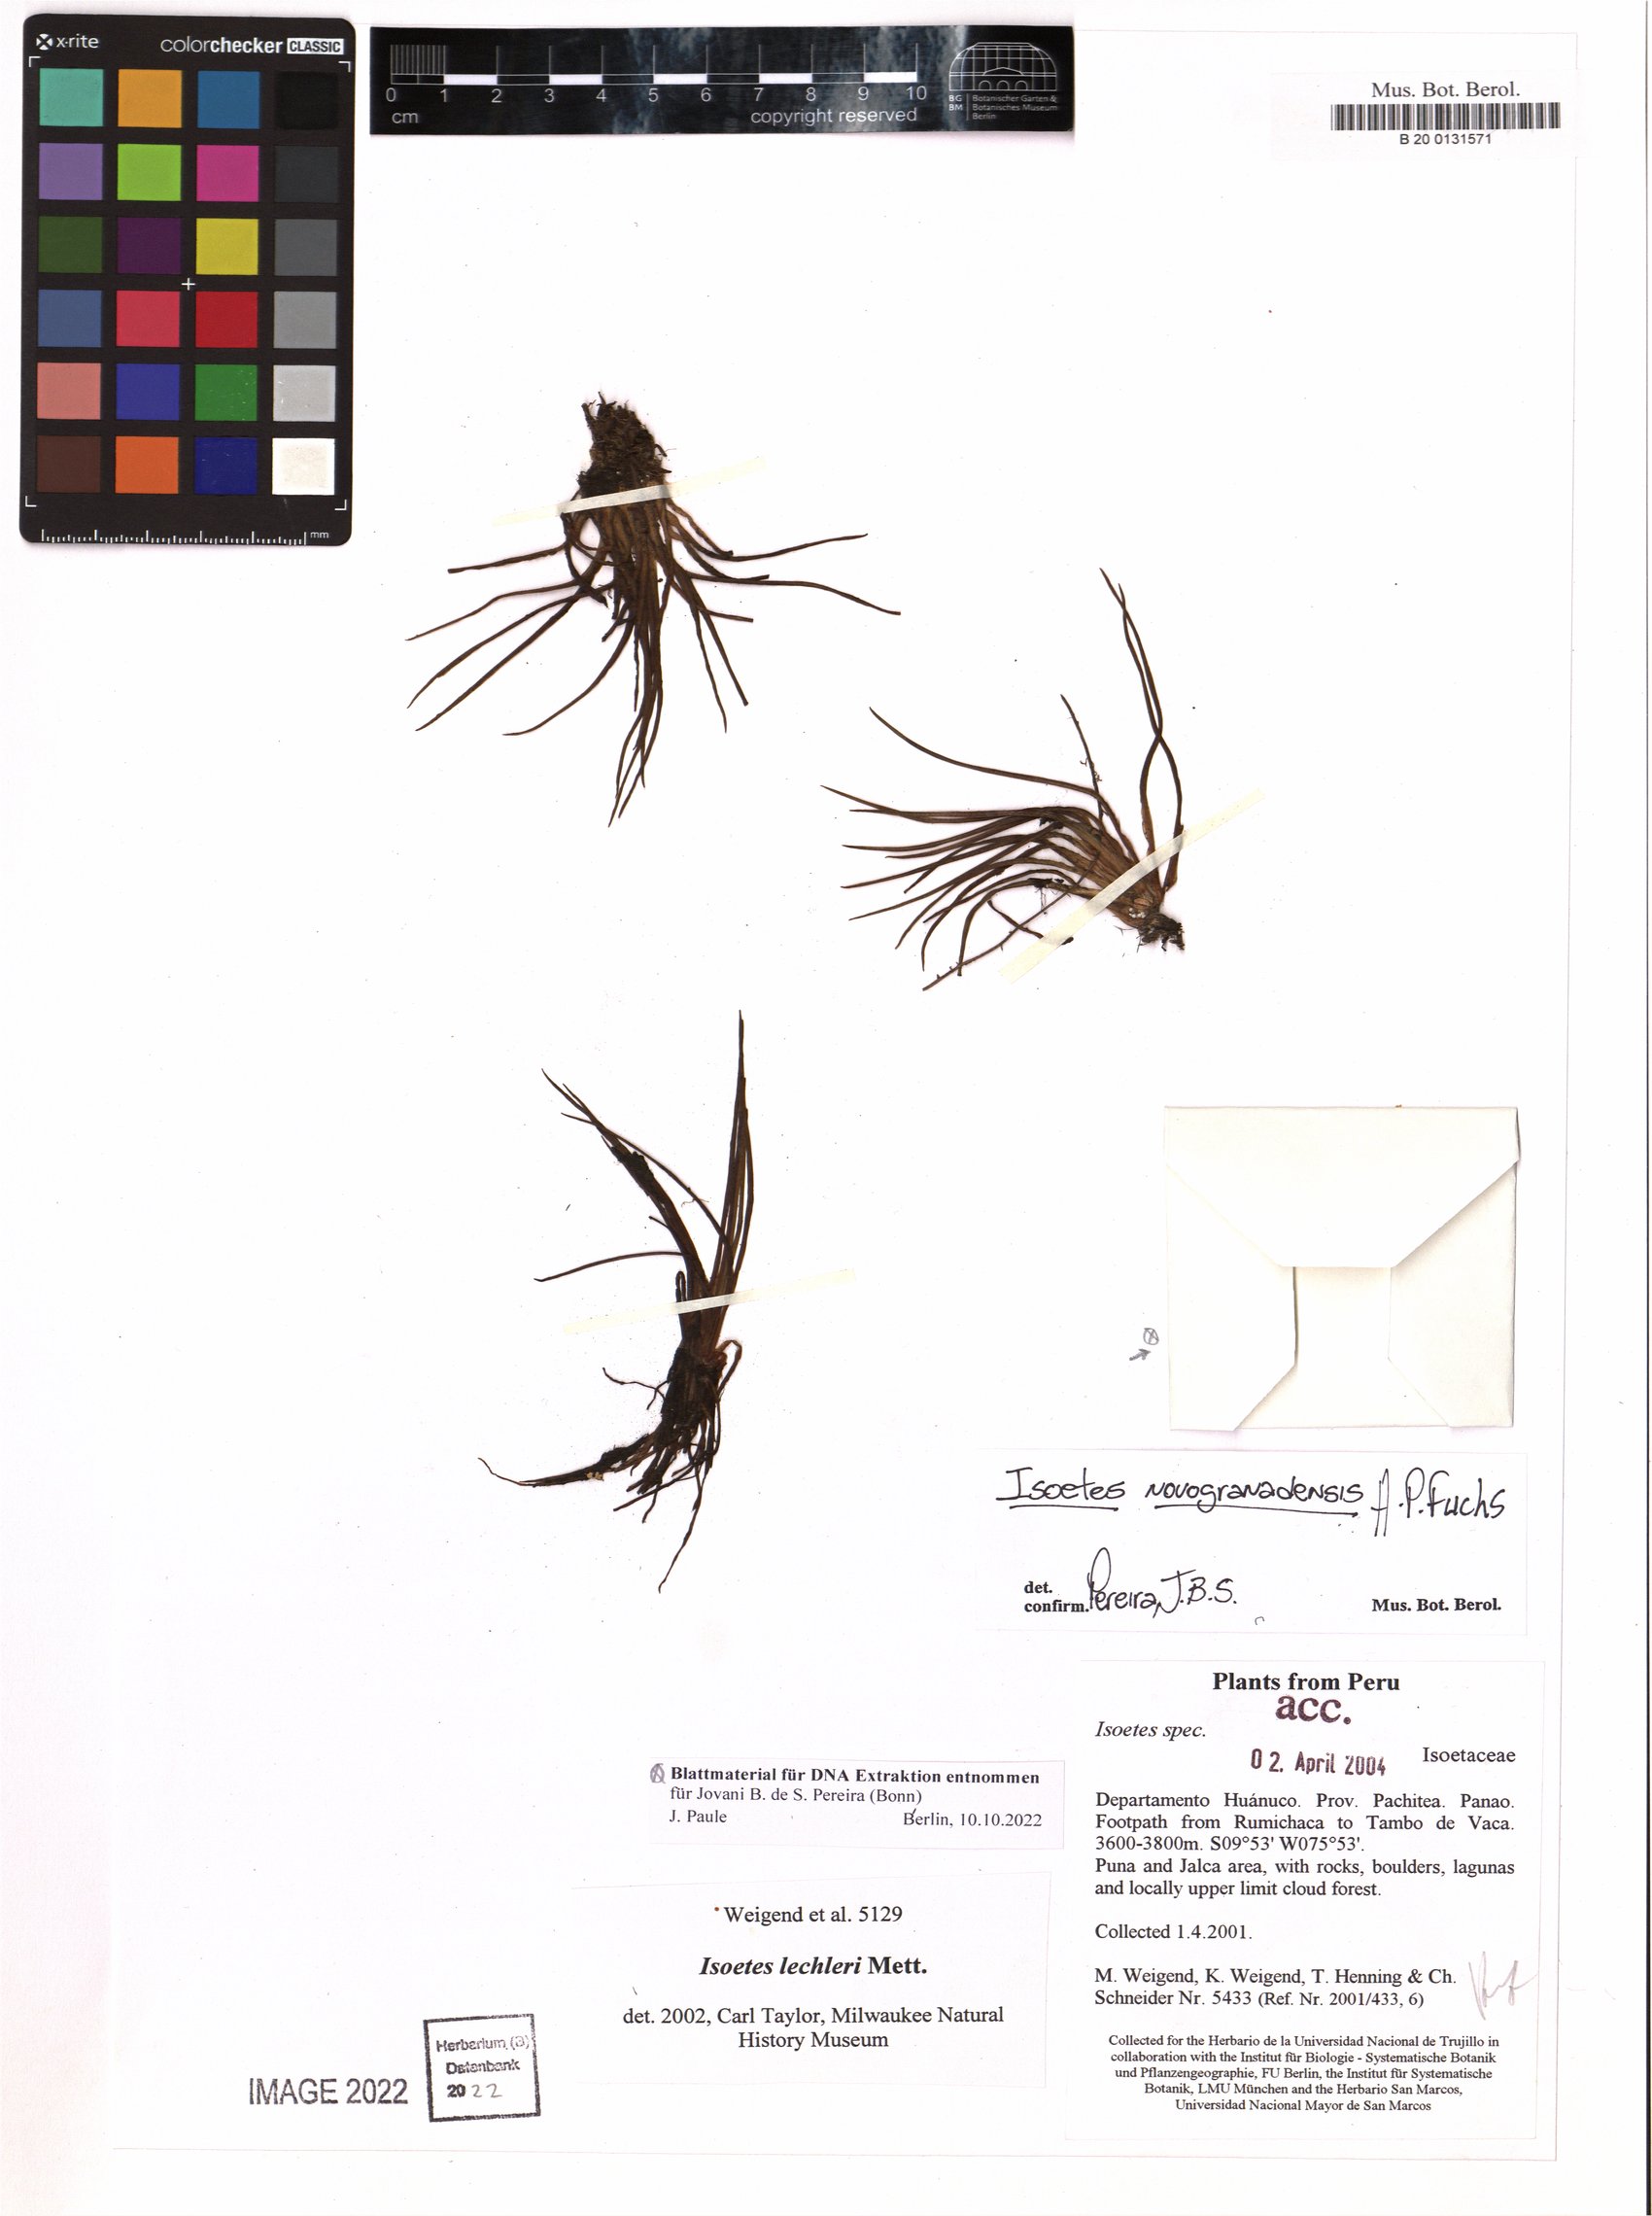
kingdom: Plantae
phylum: Tracheophyta
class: Lycopodiopsida
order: Isoetales
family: Isoetaceae
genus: Isoetes
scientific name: Isoetes novogranadensis
